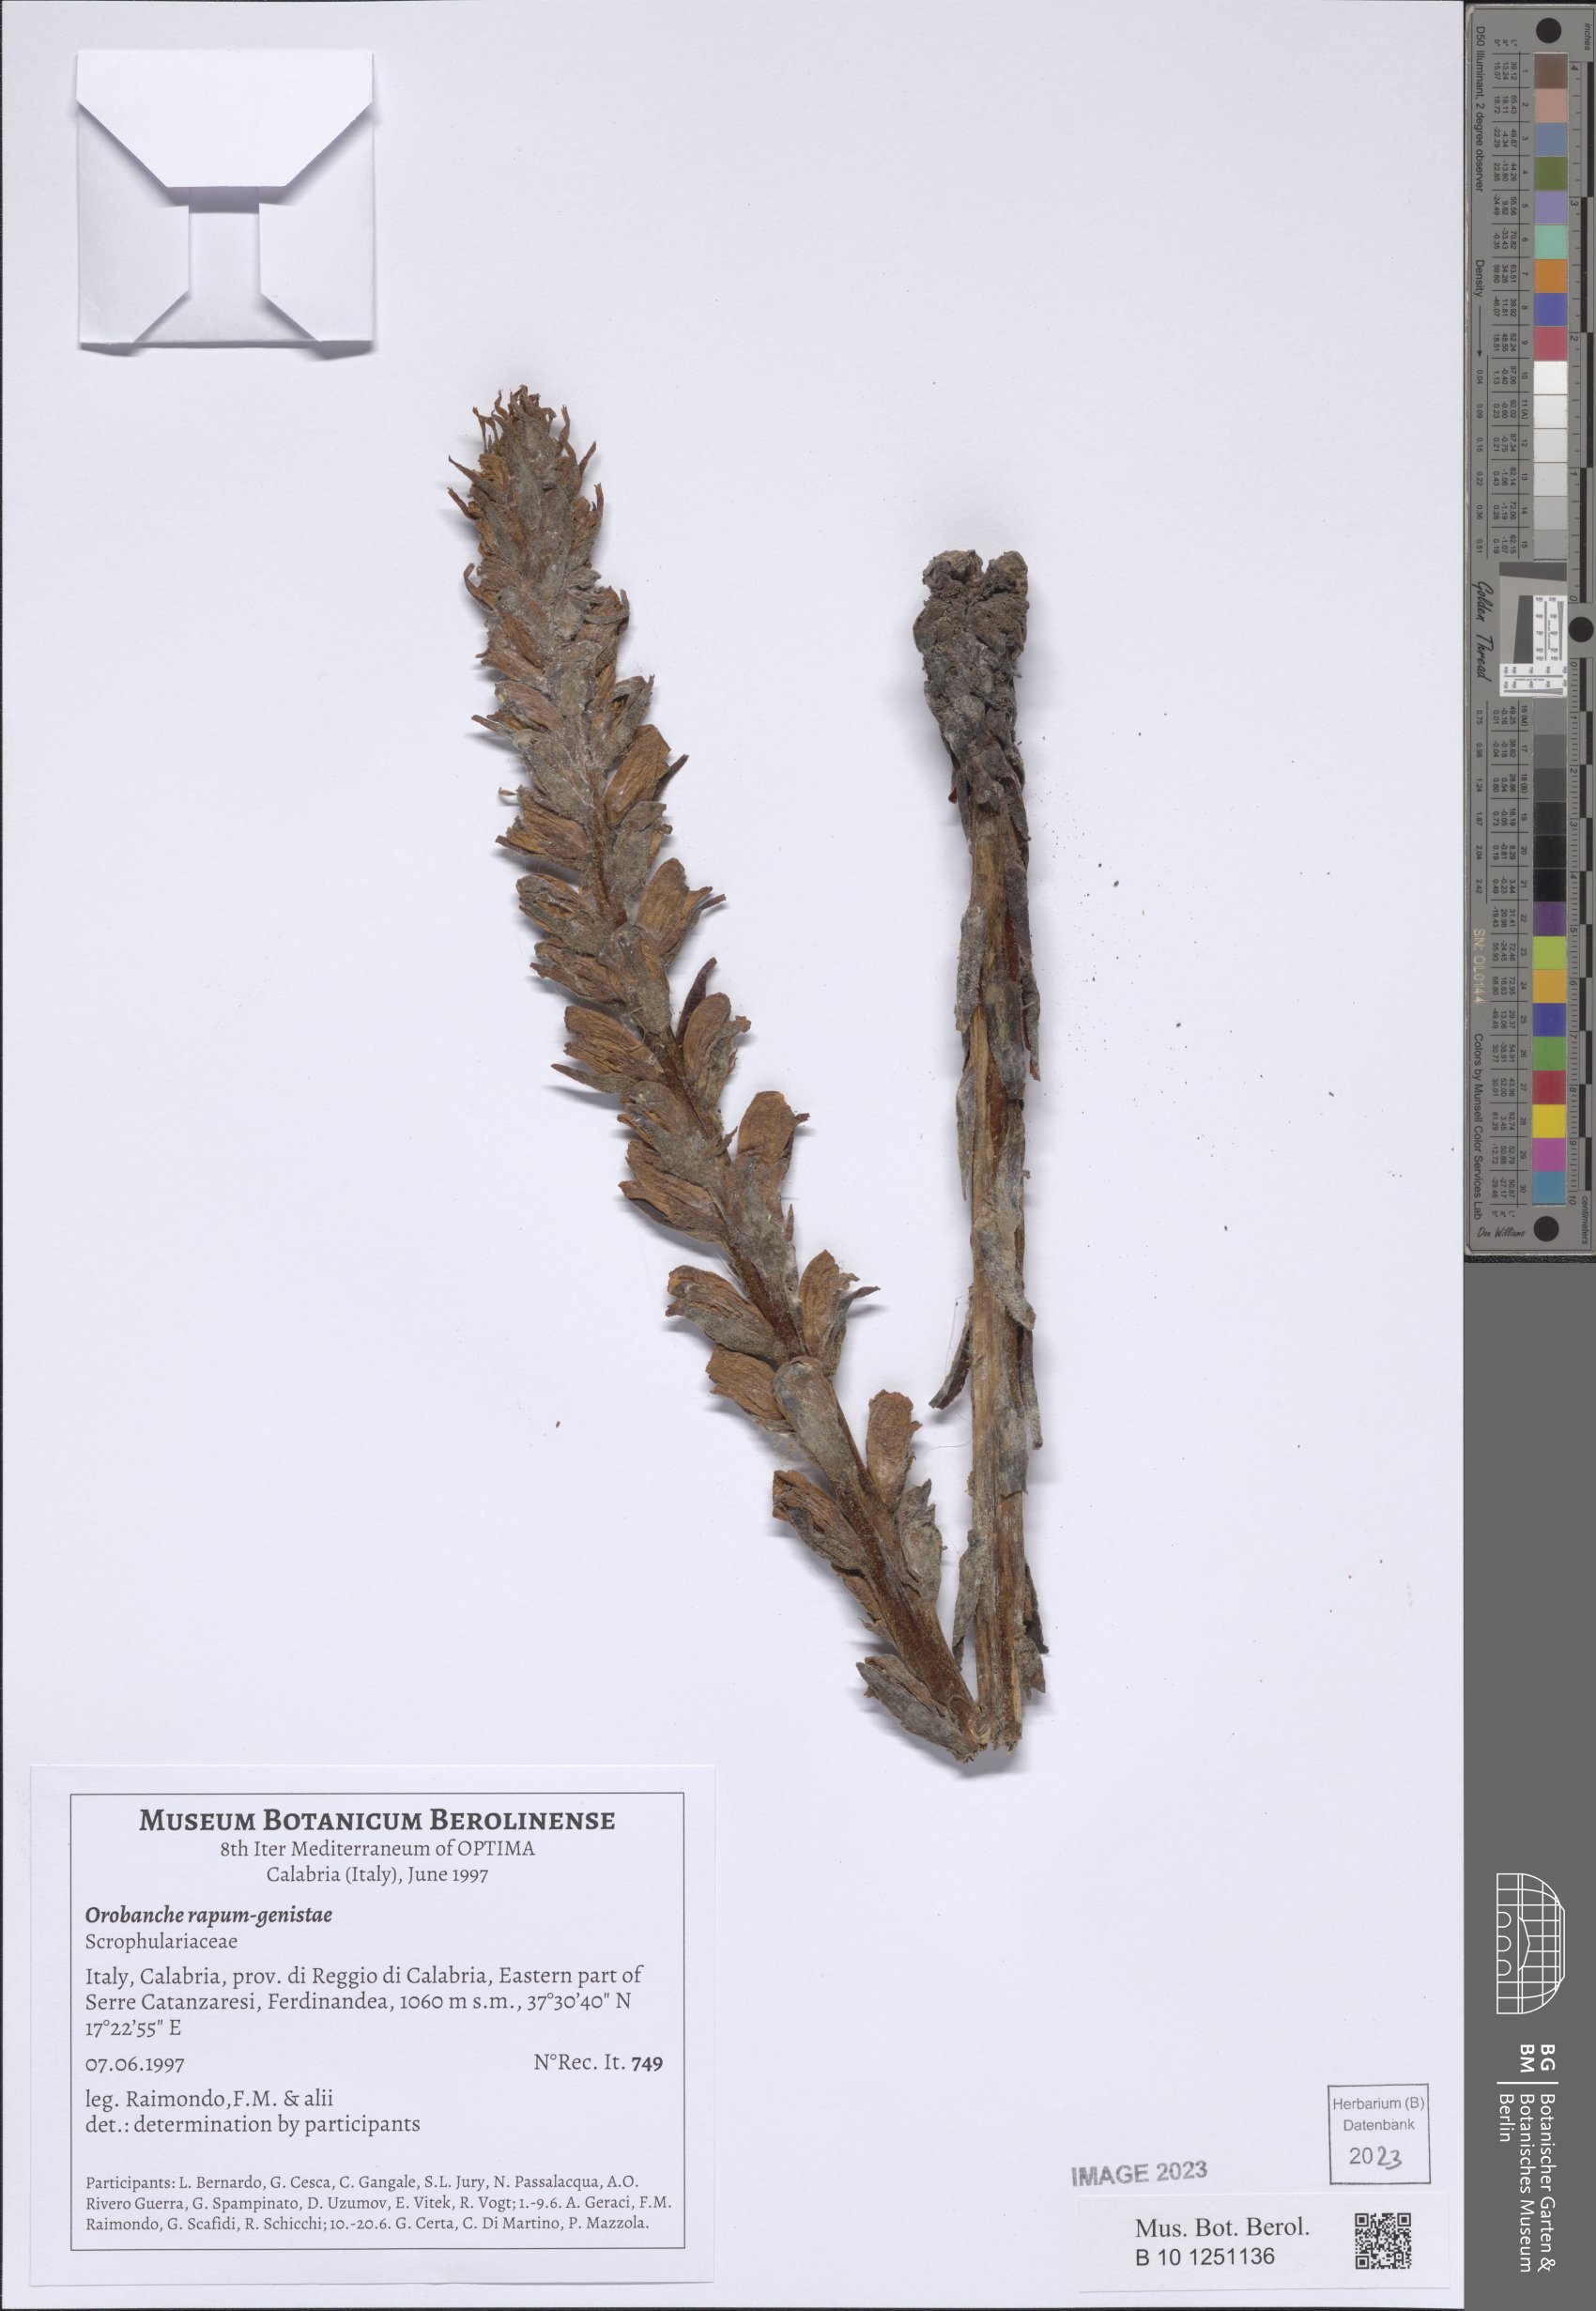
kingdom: Plantae
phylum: Tracheophyta
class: Magnoliopsida
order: Lamiales
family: Orobanchaceae
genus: Orobanche
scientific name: Orobanche rapum-genistae
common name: Greater broomrape
